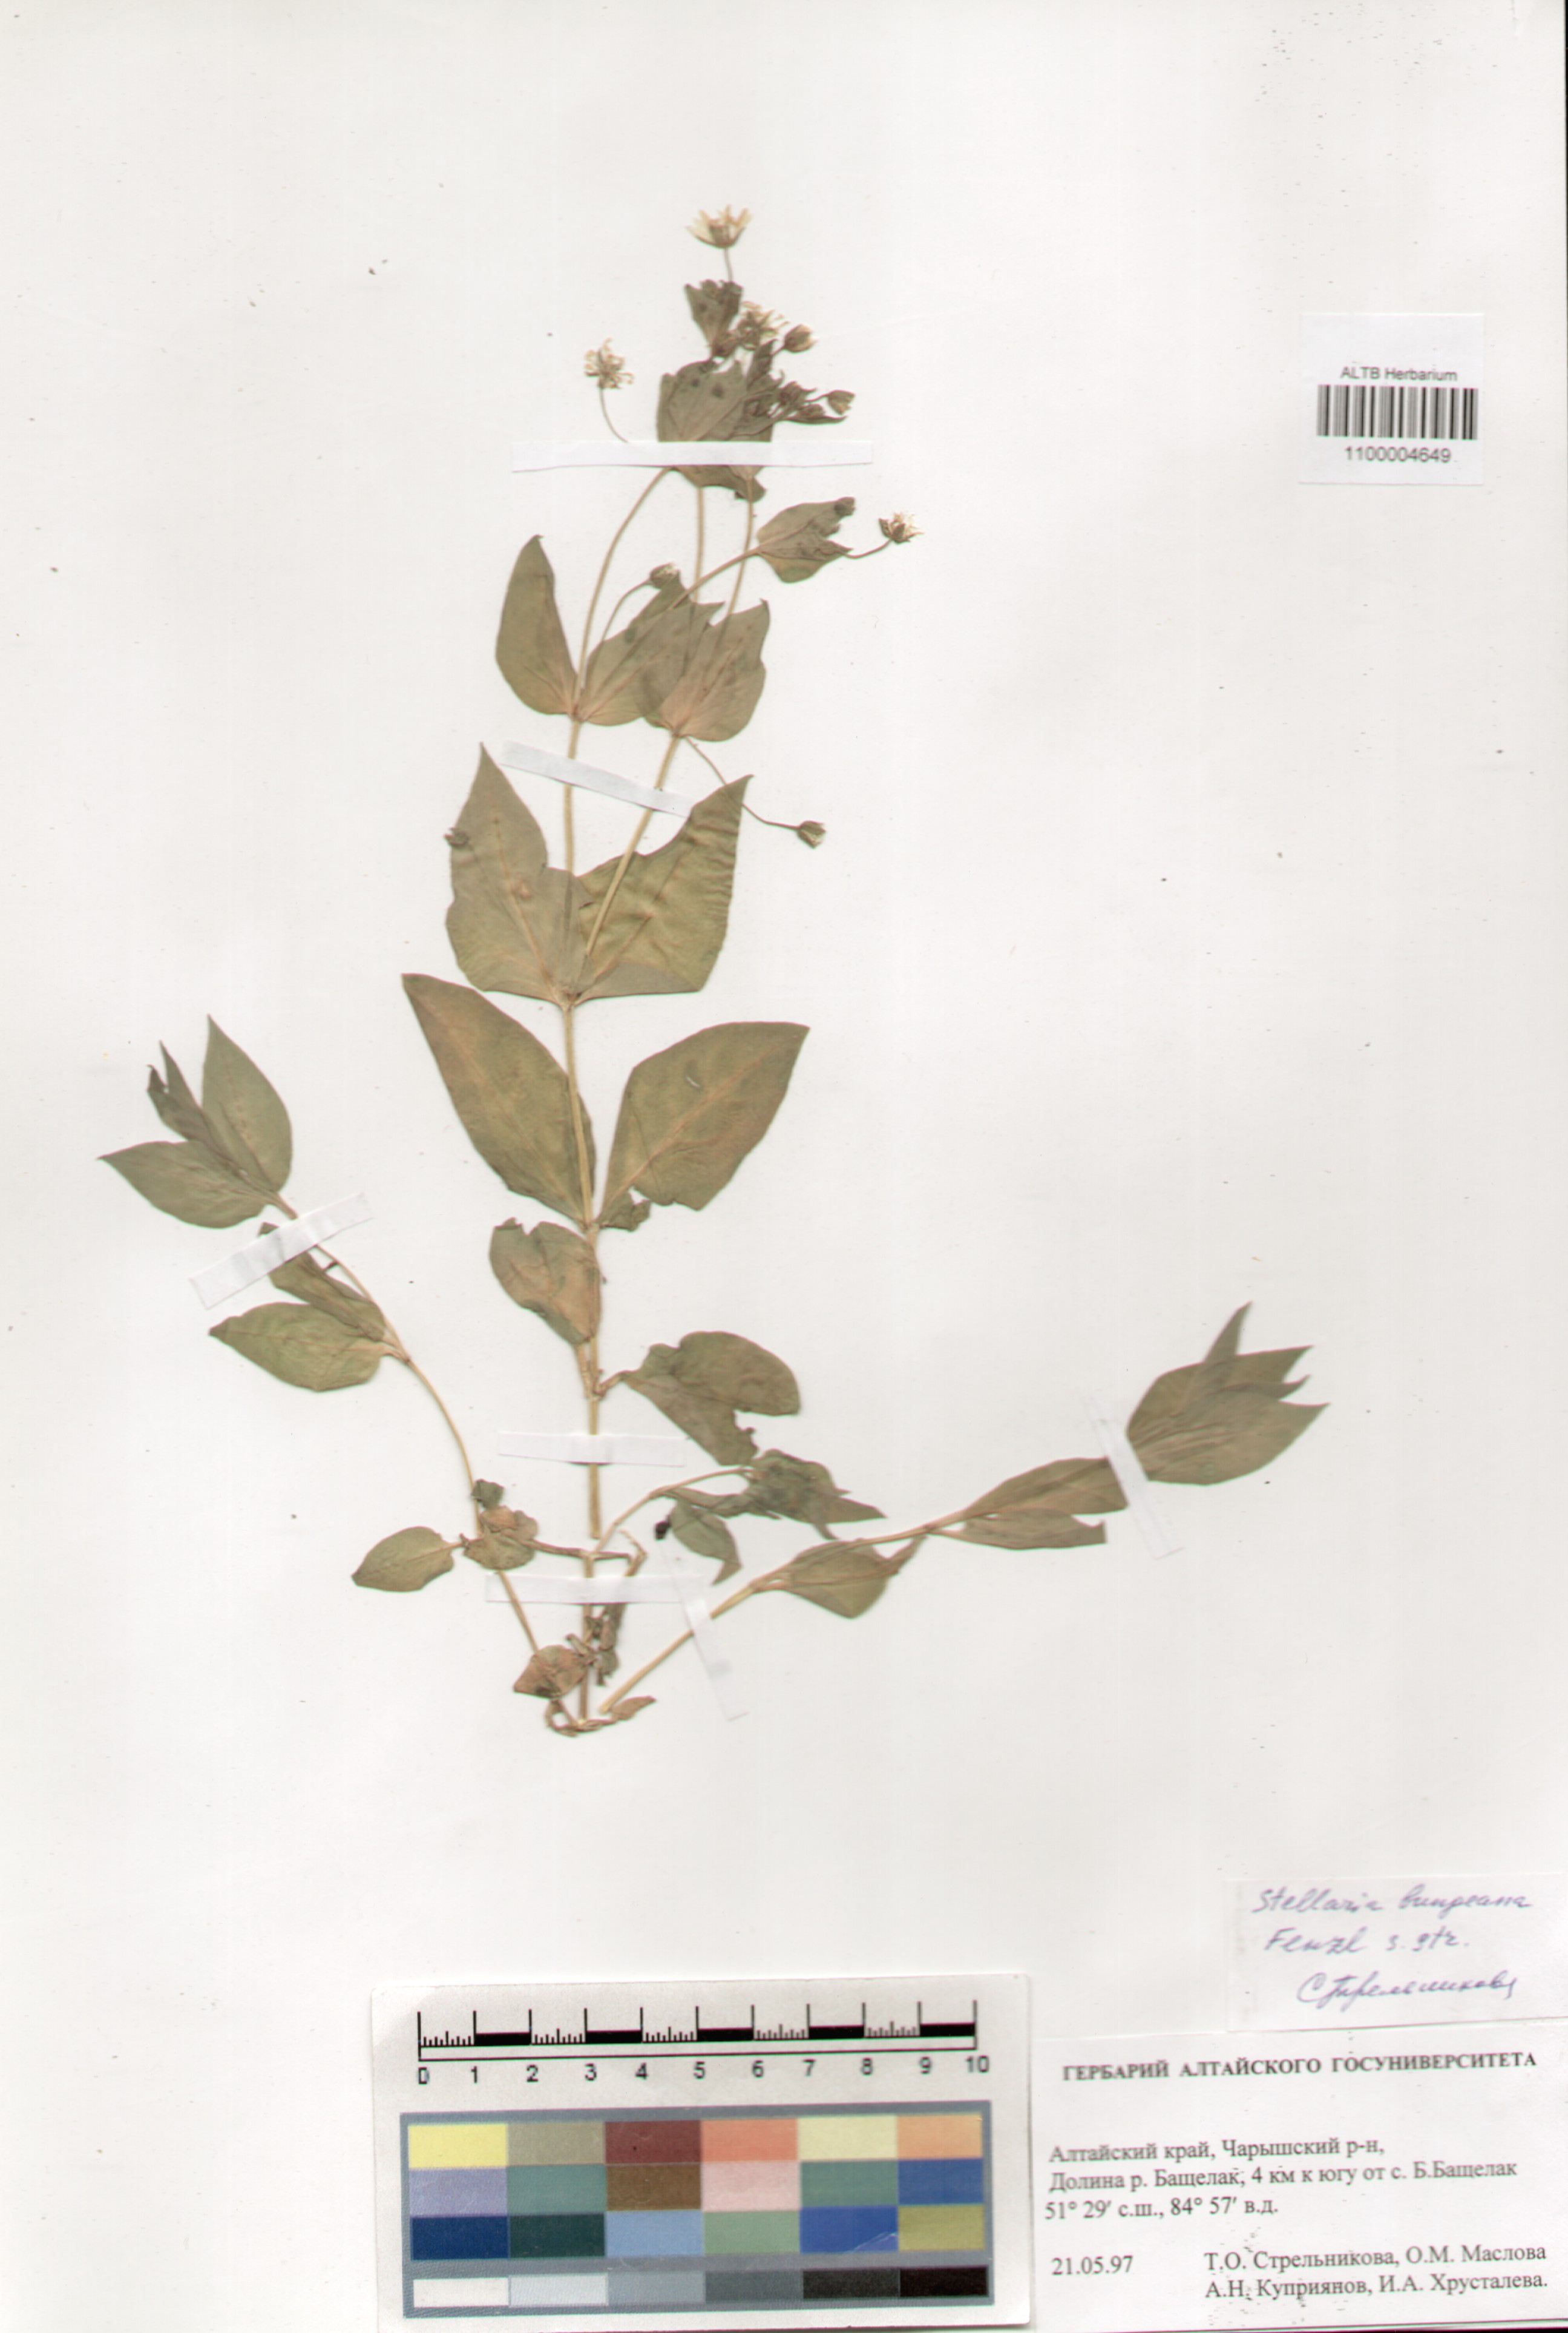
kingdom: Plantae
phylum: Tracheophyta
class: Magnoliopsida
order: Caryophyllales
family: Caryophyllaceae
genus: Stellaria
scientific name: Stellaria bungeana
